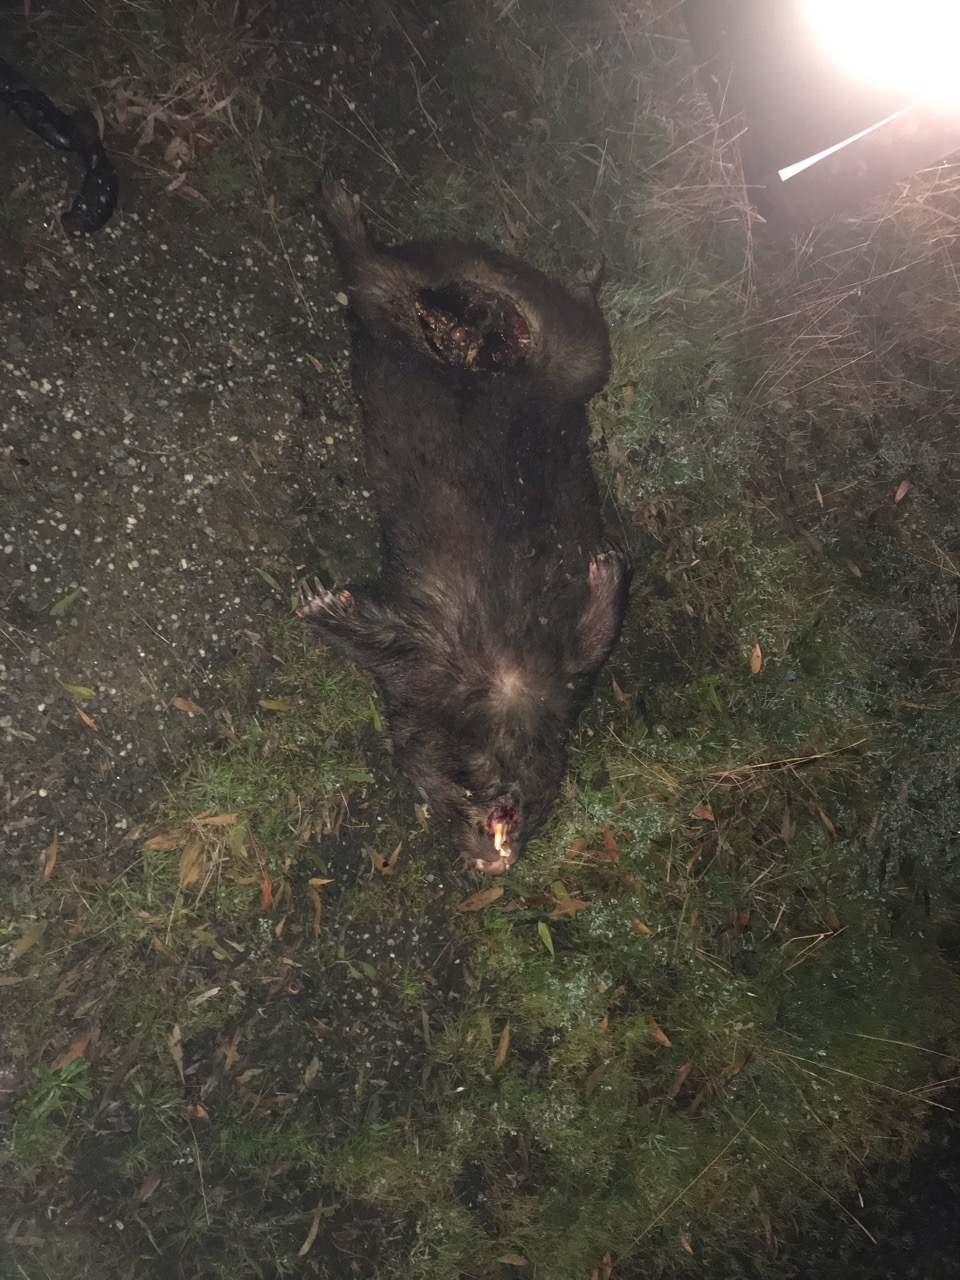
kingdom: Animalia
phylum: Chordata
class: Mammalia
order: Diprotodontia
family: Vombatidae
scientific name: Vombatidae
